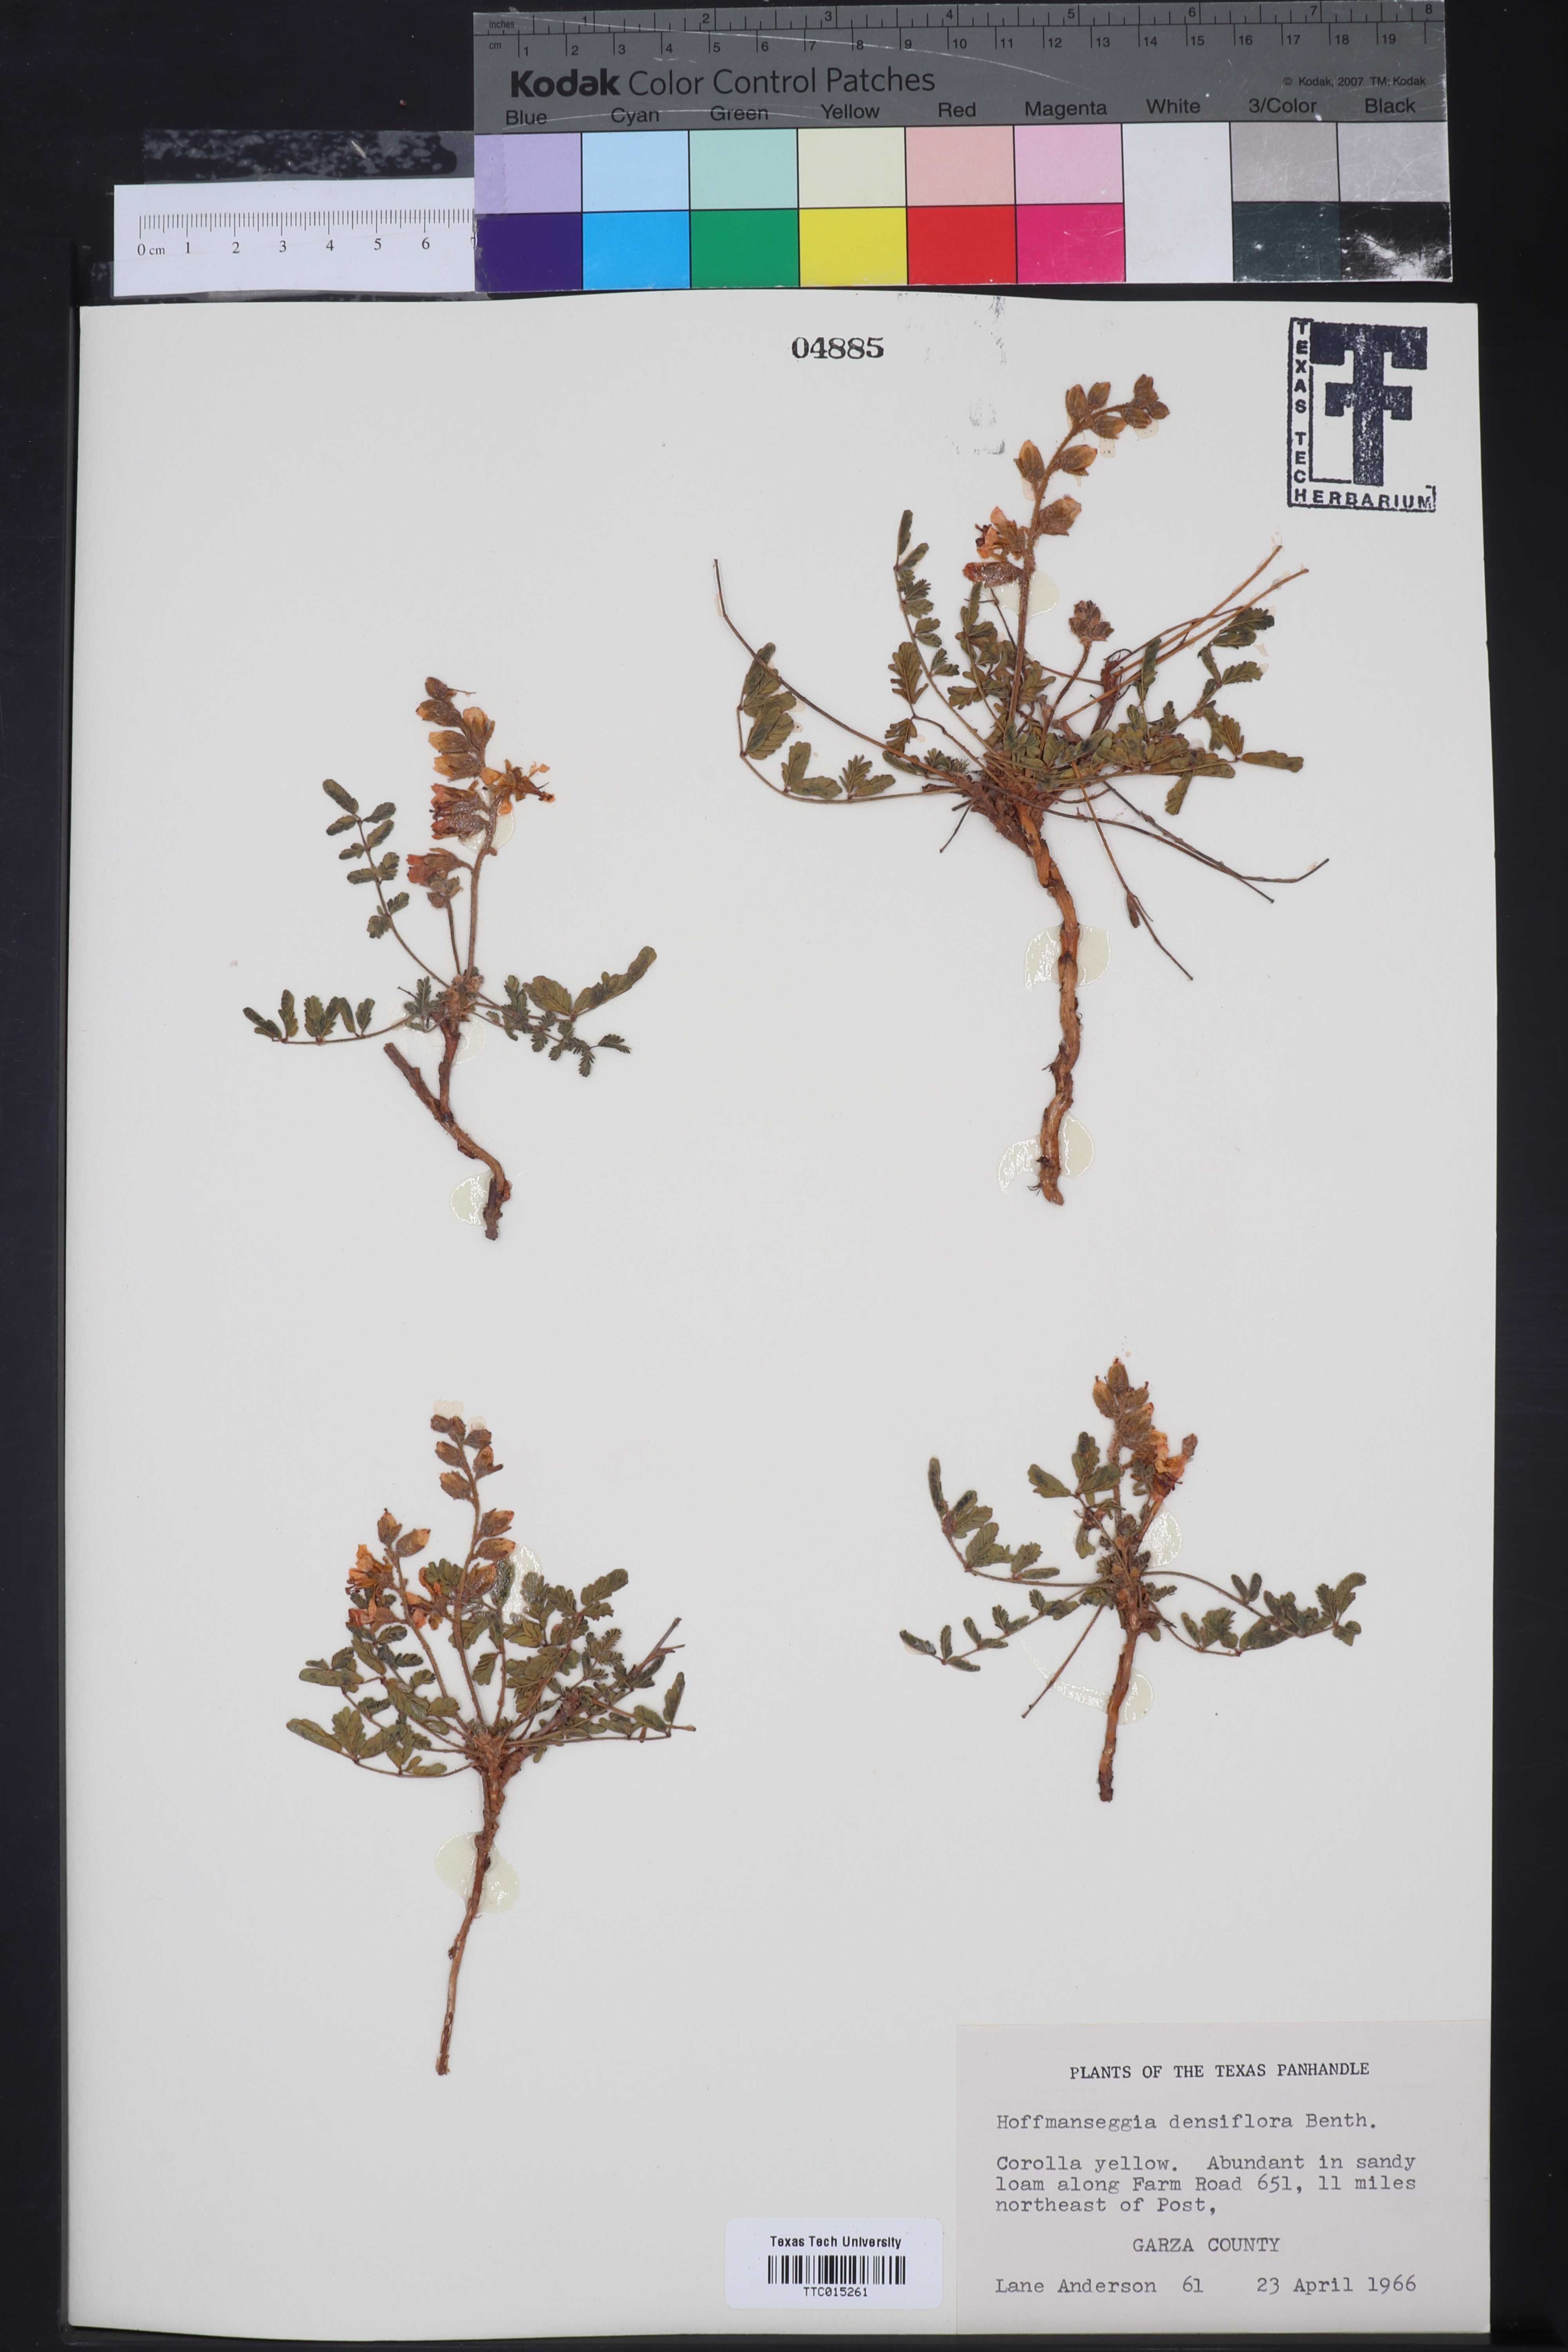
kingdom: Plantae
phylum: Tracheophyta
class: Magnoliopsida
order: Fabales
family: Fabaceae
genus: Hoffmannseggia
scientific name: Hoffmannseggia glauca
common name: Pignut
